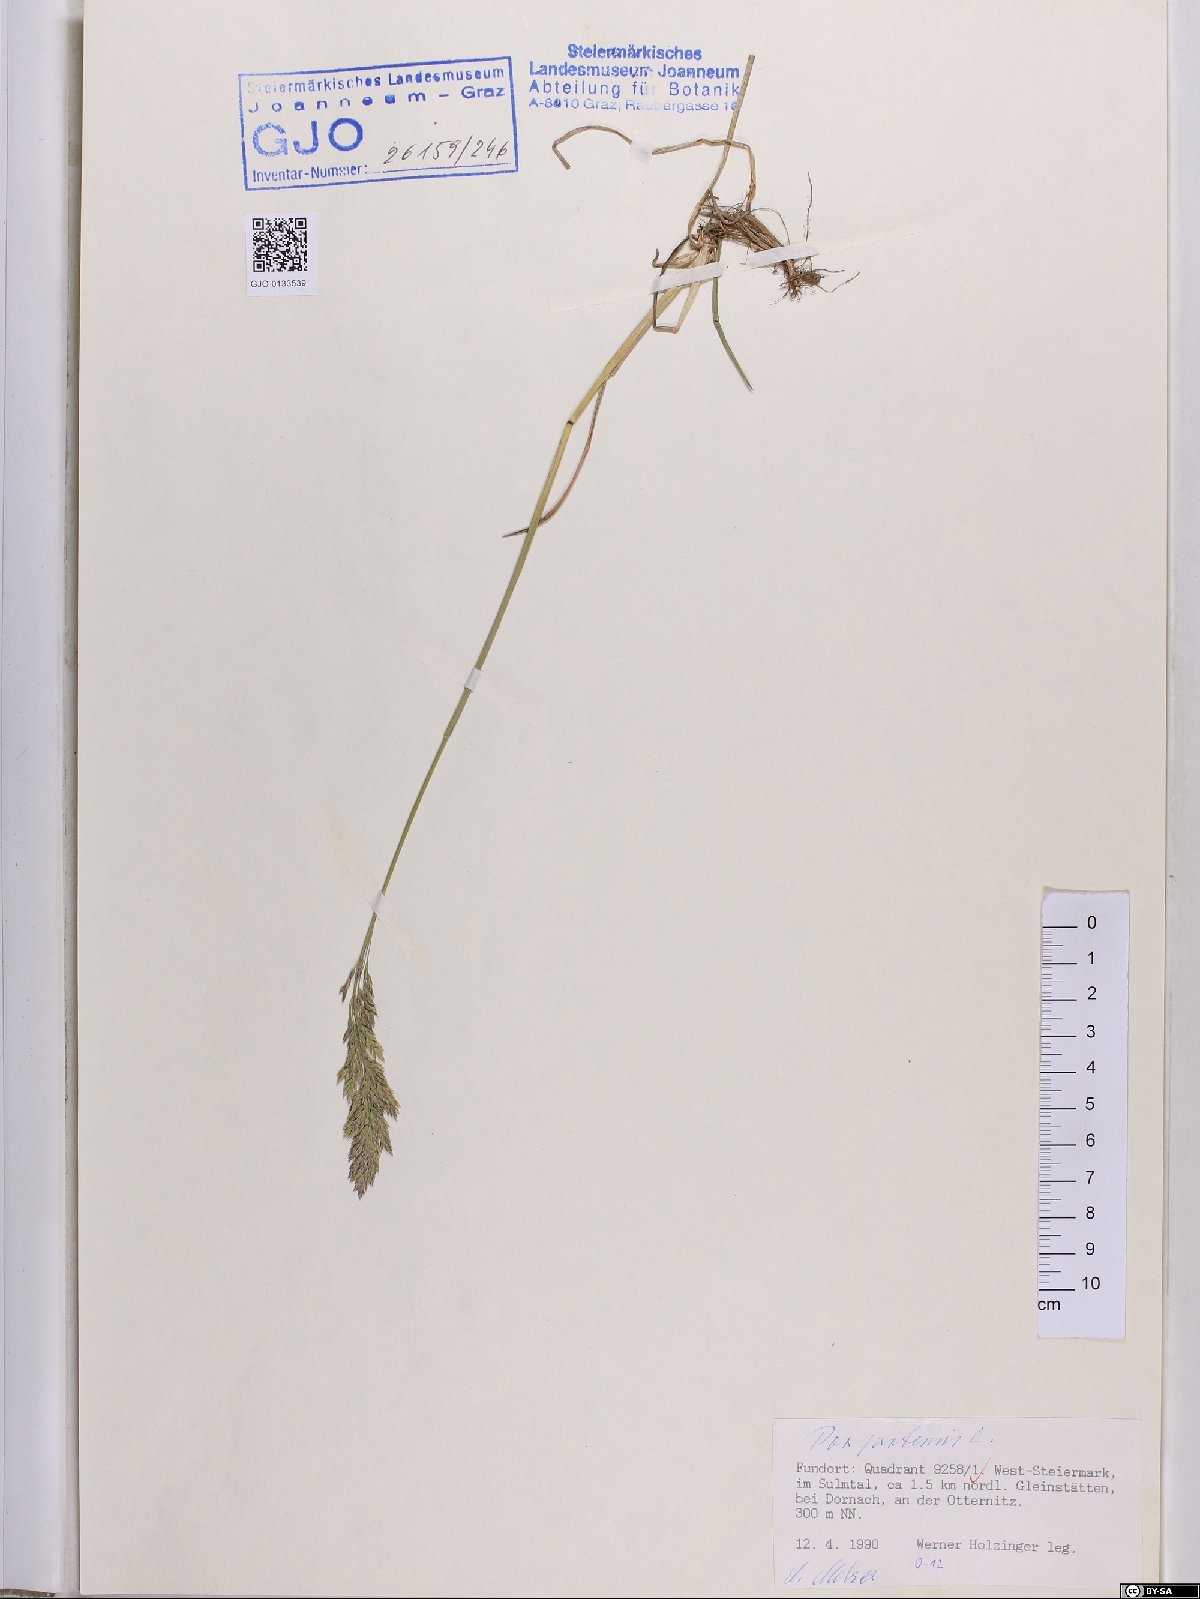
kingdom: Plantae
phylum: Tracheophyta
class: Liliopsida
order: Poales
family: Poaceae
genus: Poa
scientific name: Poa pratensis
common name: Kentucky bluegrass
